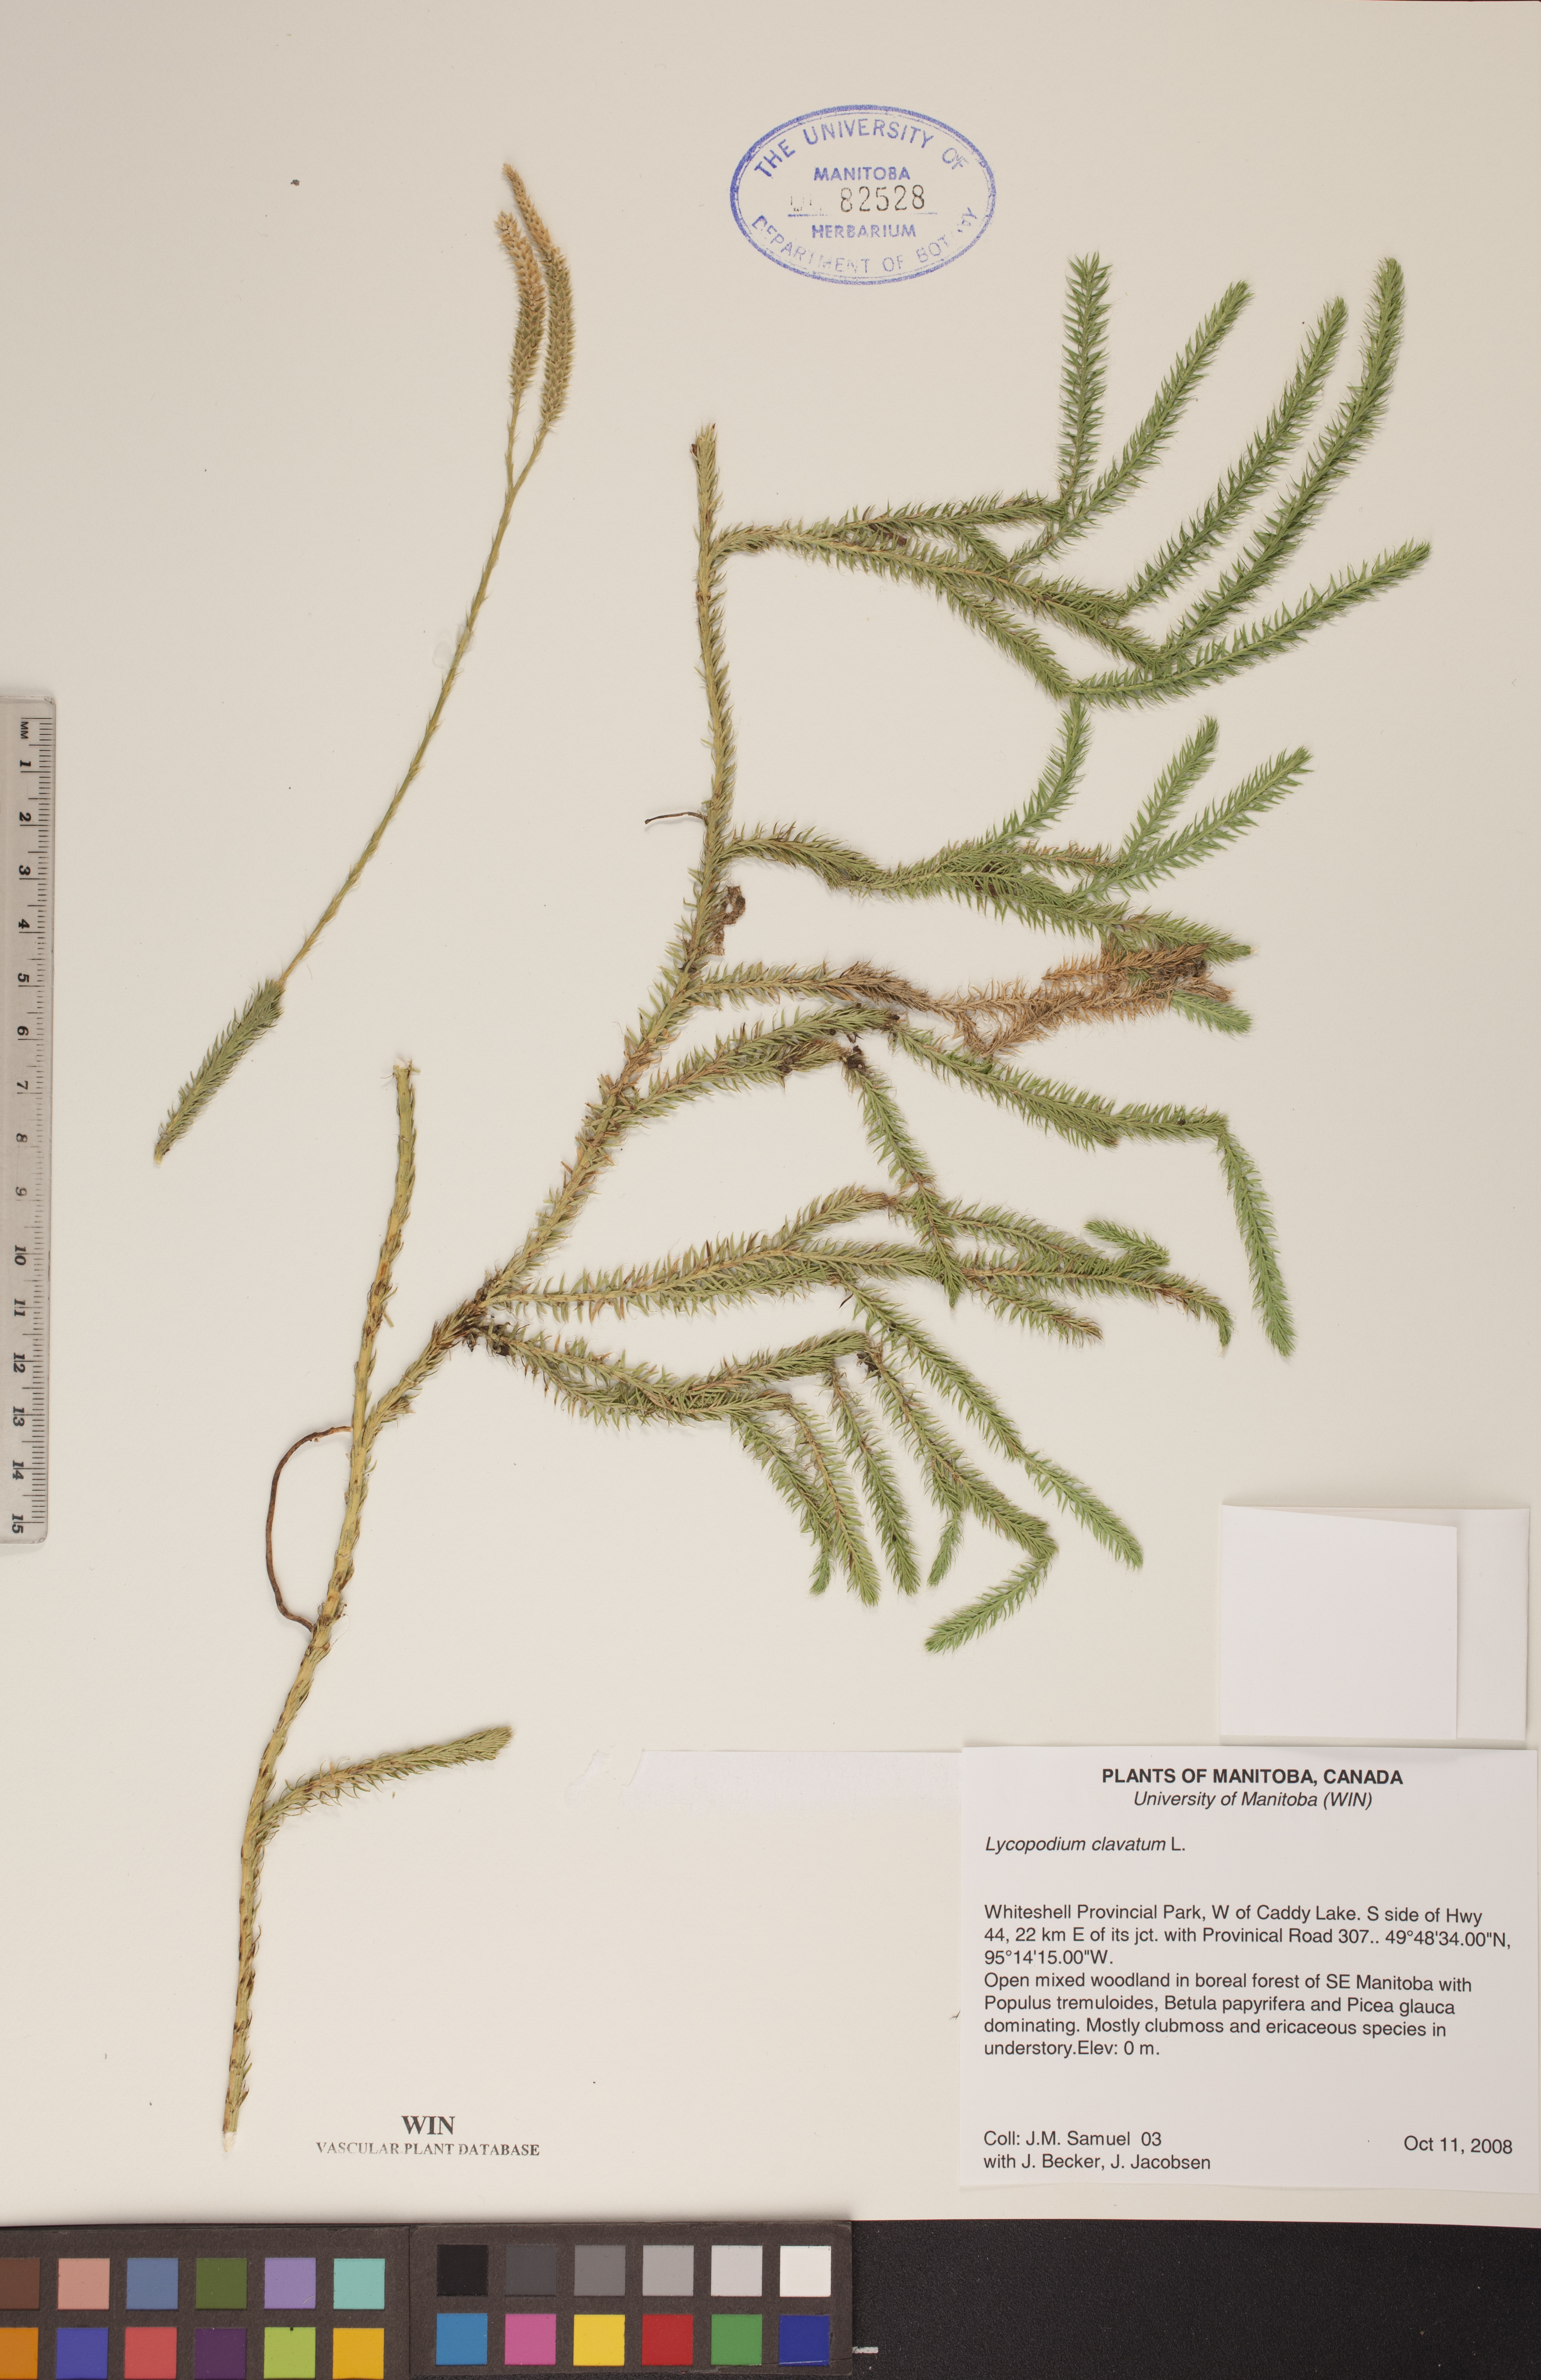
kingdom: Plantae
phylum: Tracheophyta
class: Lycopodiopsida
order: Lycopodiales
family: Lycopodiaceae
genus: Lycopodium
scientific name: Lycopodium clavatum
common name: Stag's-horn clubmoss
